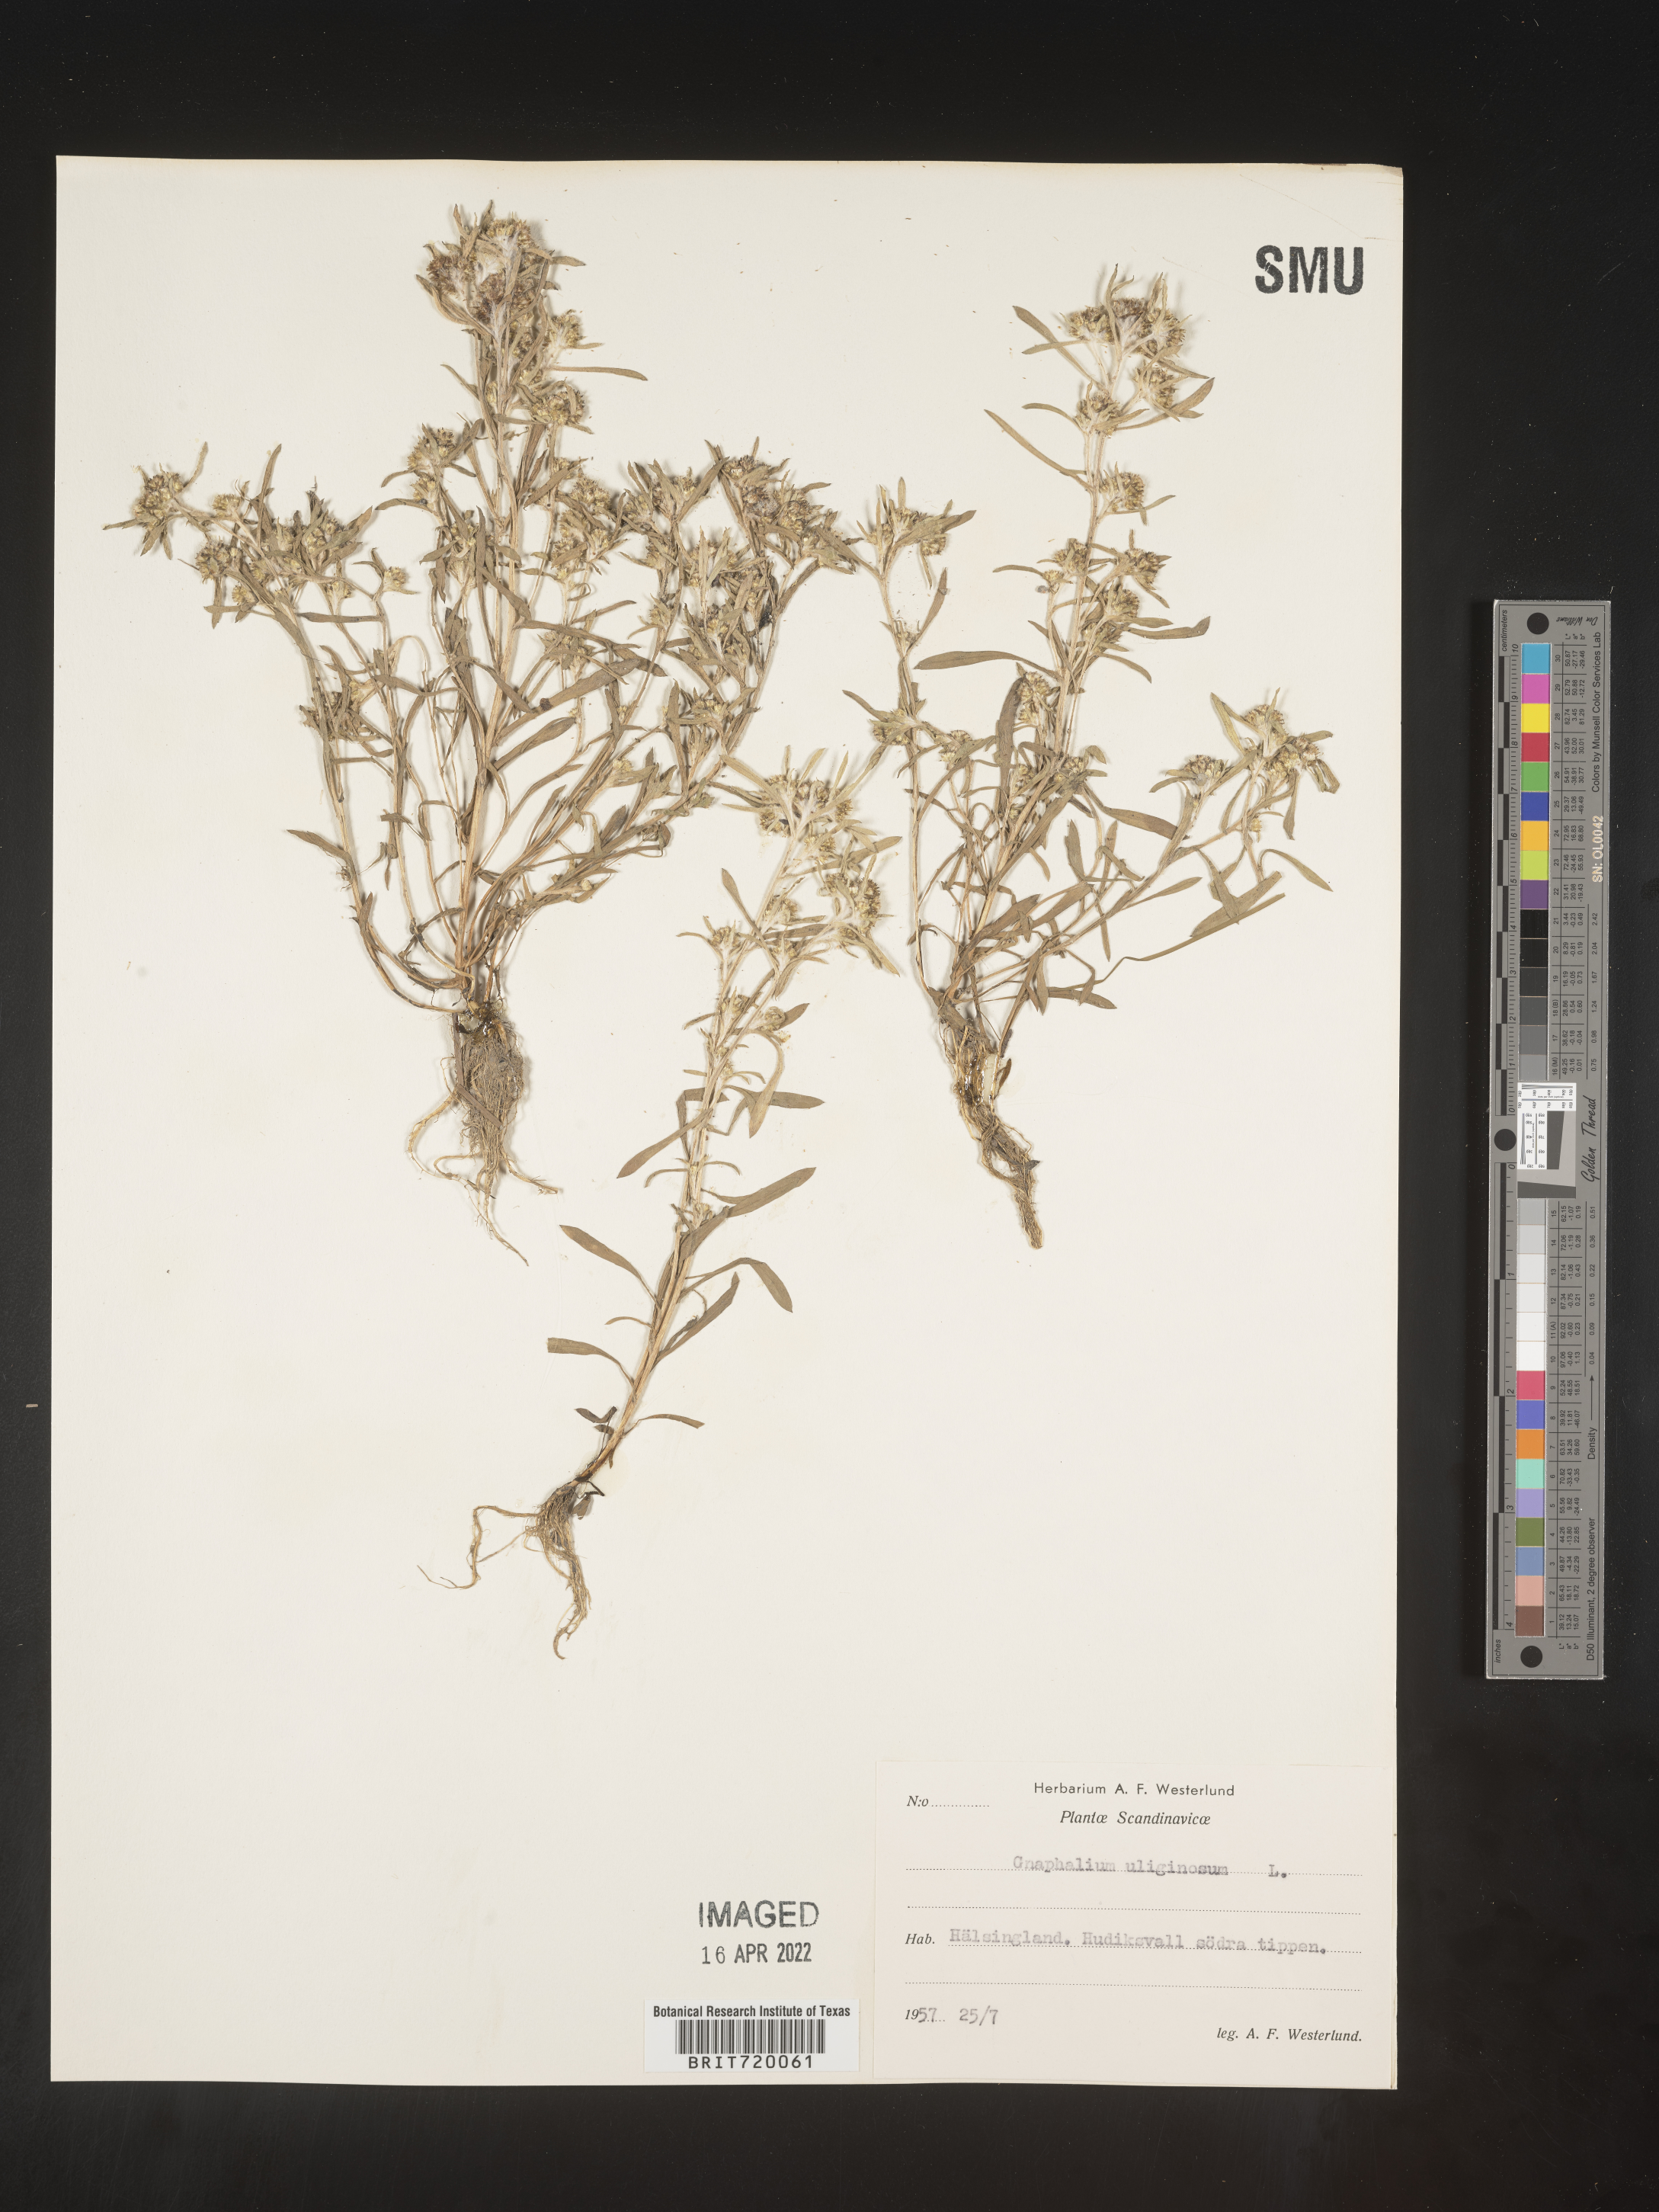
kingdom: Plantae
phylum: Tracheophyta
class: Magnoliopsida
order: Asterales
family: Asteraceae
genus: Gnaphalium
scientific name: Gnaphalium
